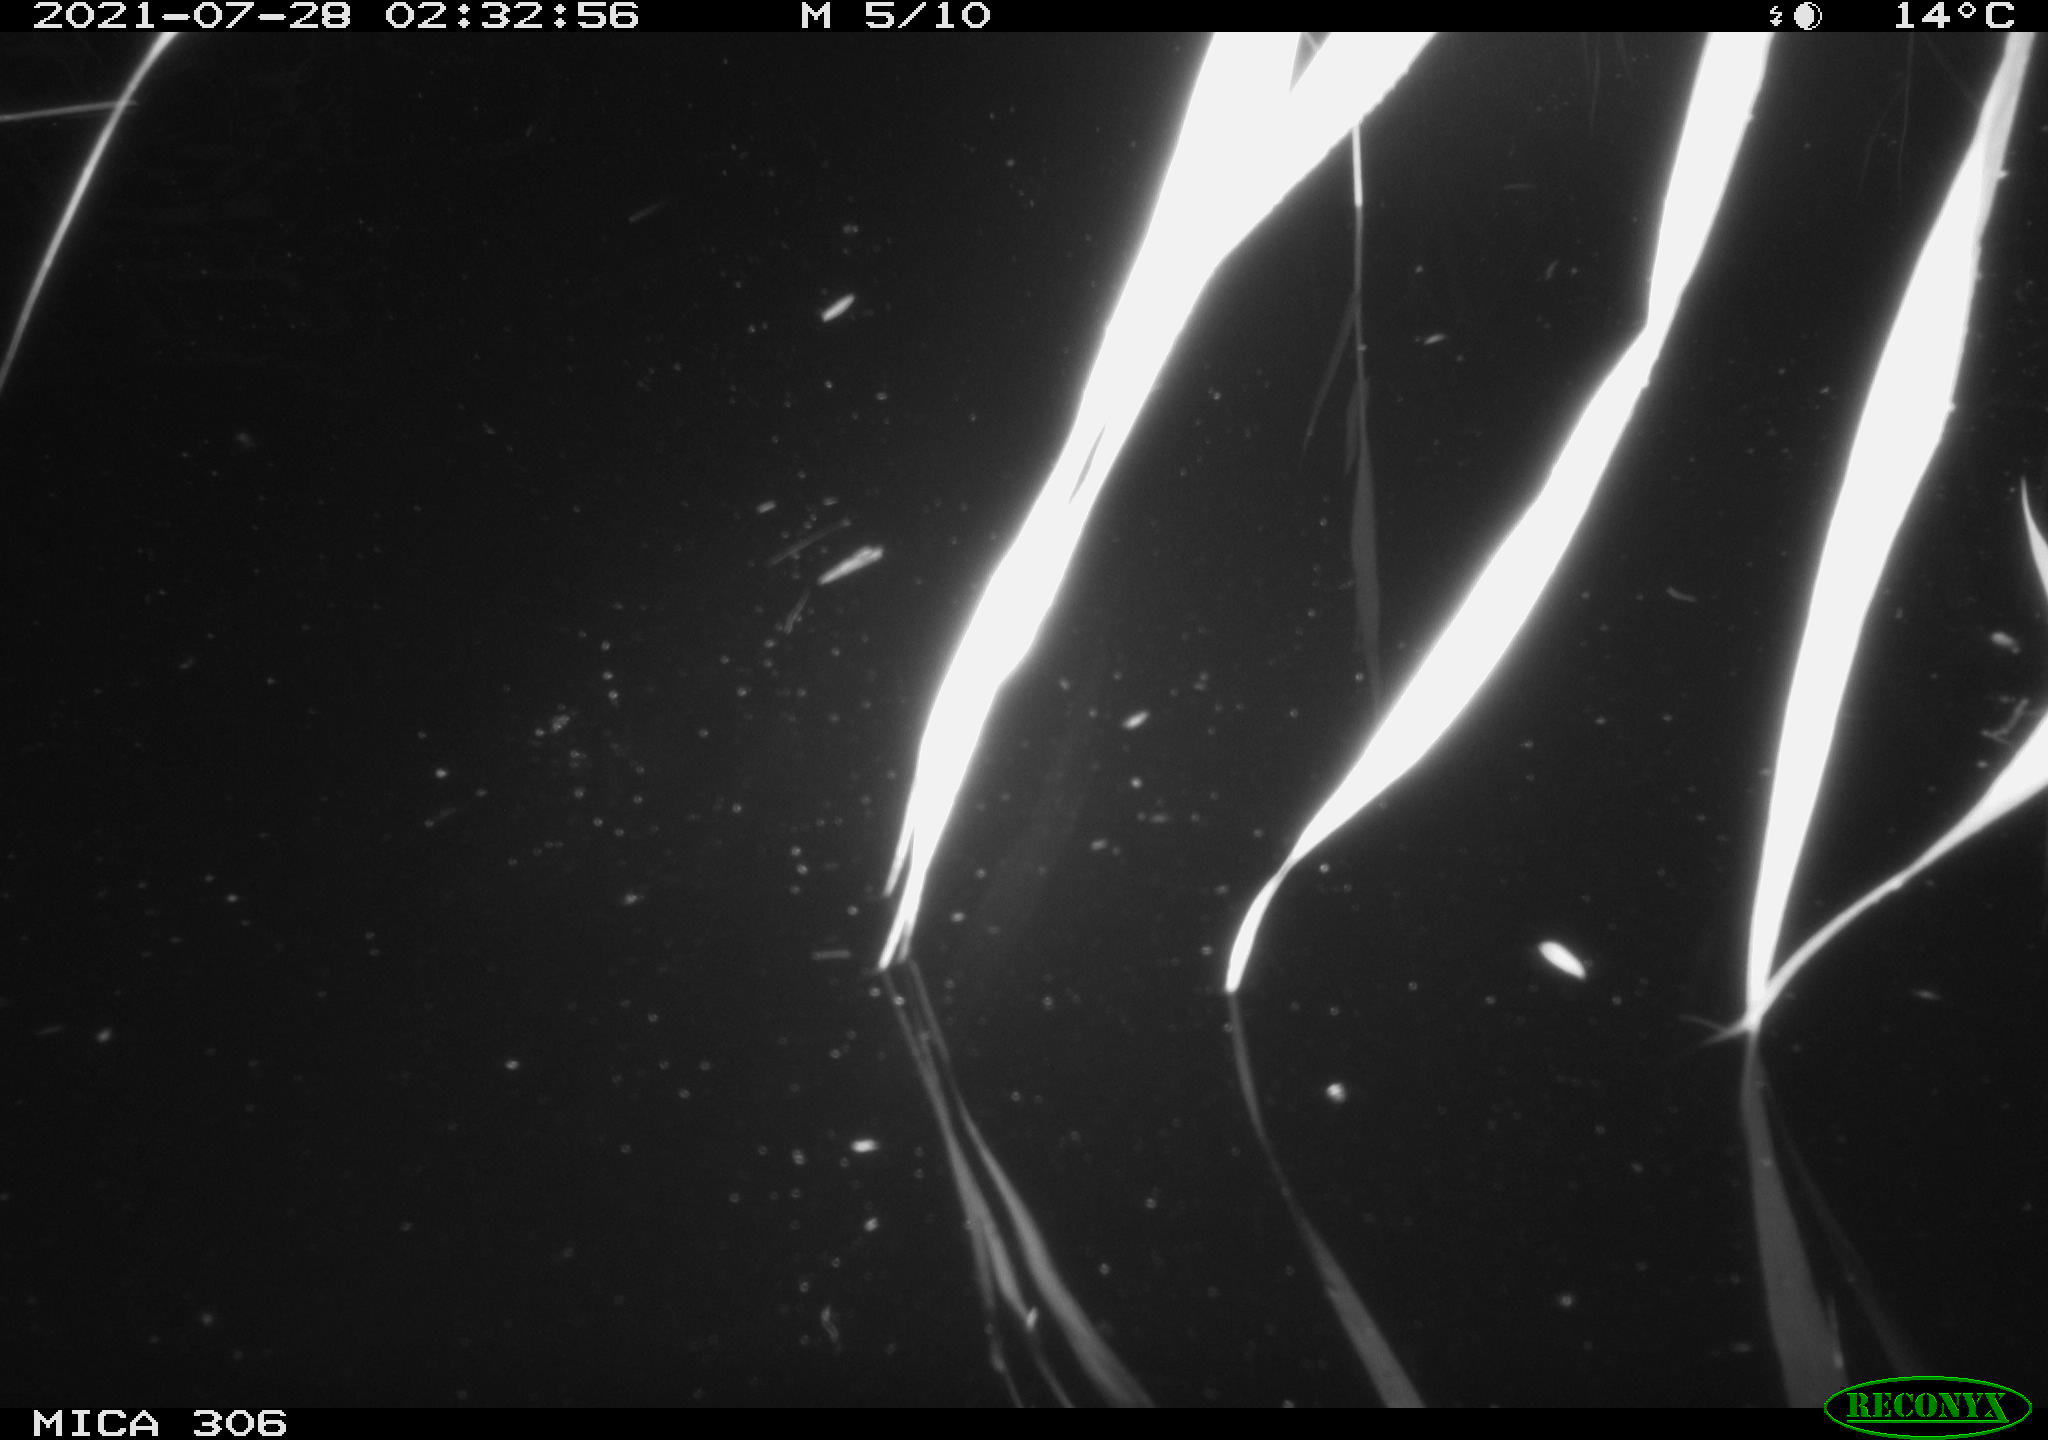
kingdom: Animalia
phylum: Chordata
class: Aves
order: Anseriformes
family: Anatidae
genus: Anas
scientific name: Anas platyrhynchos
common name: Mallard
